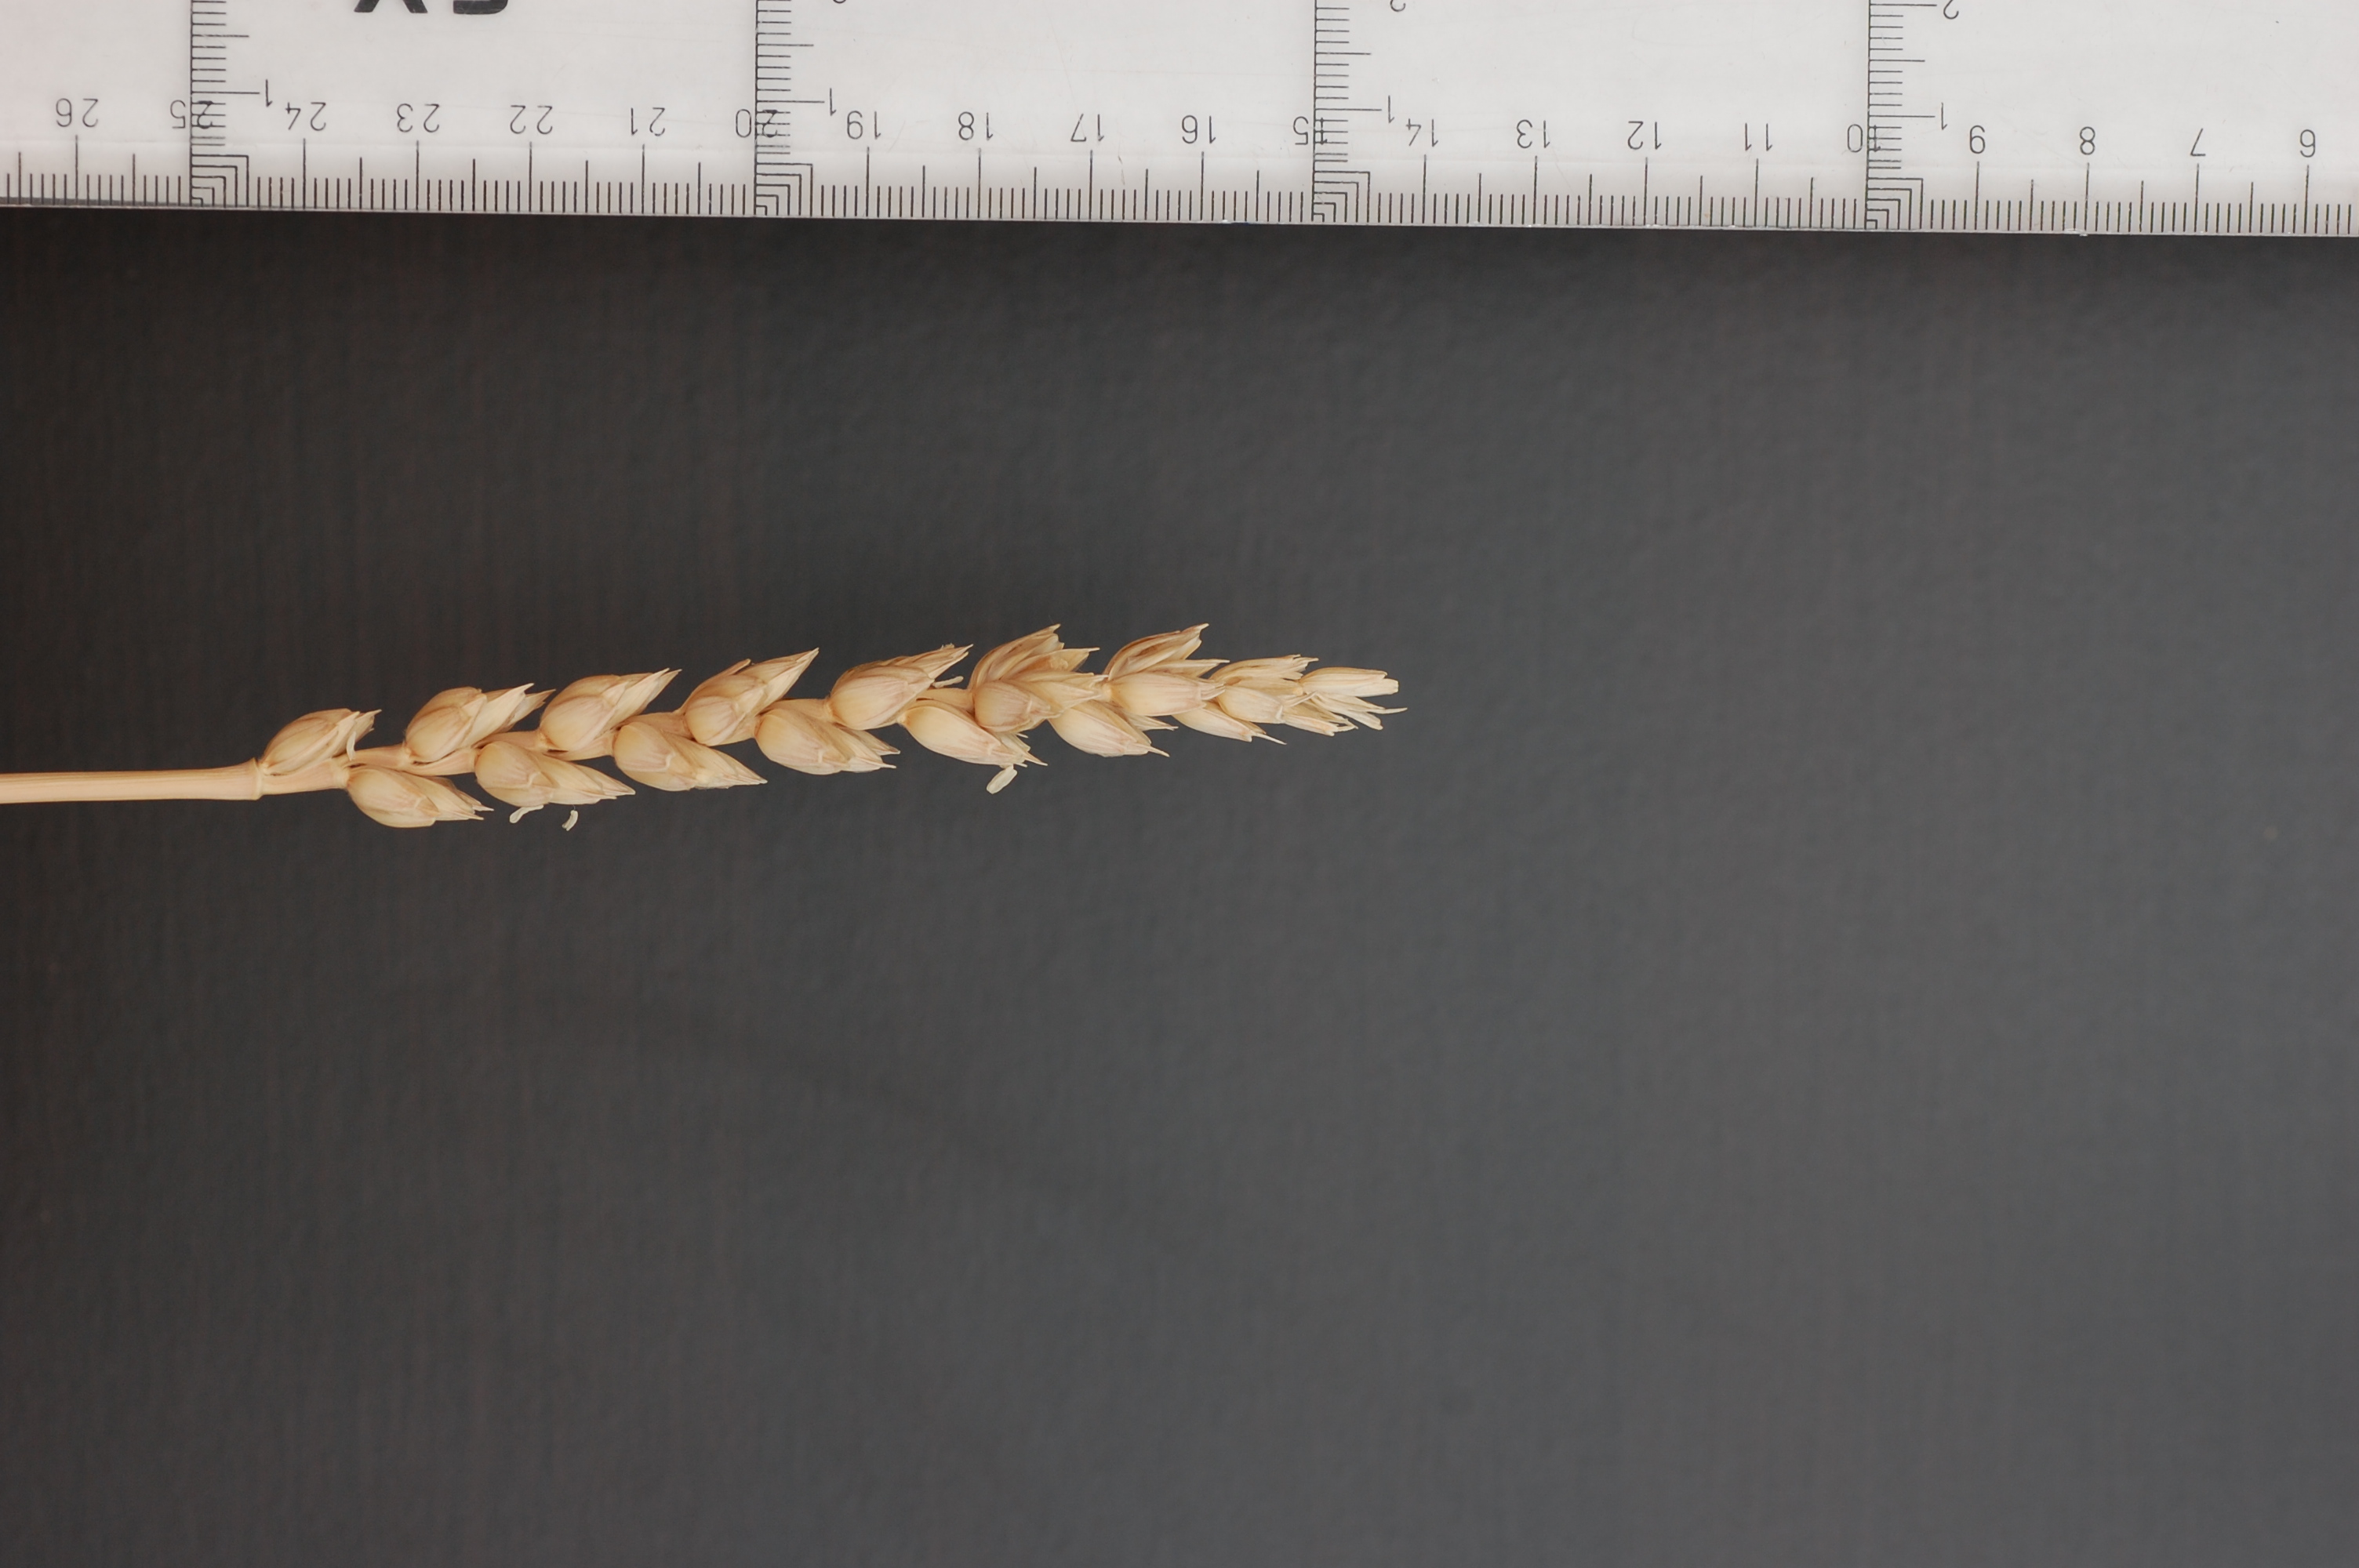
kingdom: Plantae
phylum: Tracheophyta
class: Liliopsida
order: Poales
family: Poaceae
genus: Triticum
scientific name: Triticum aestivum
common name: Common wheat
